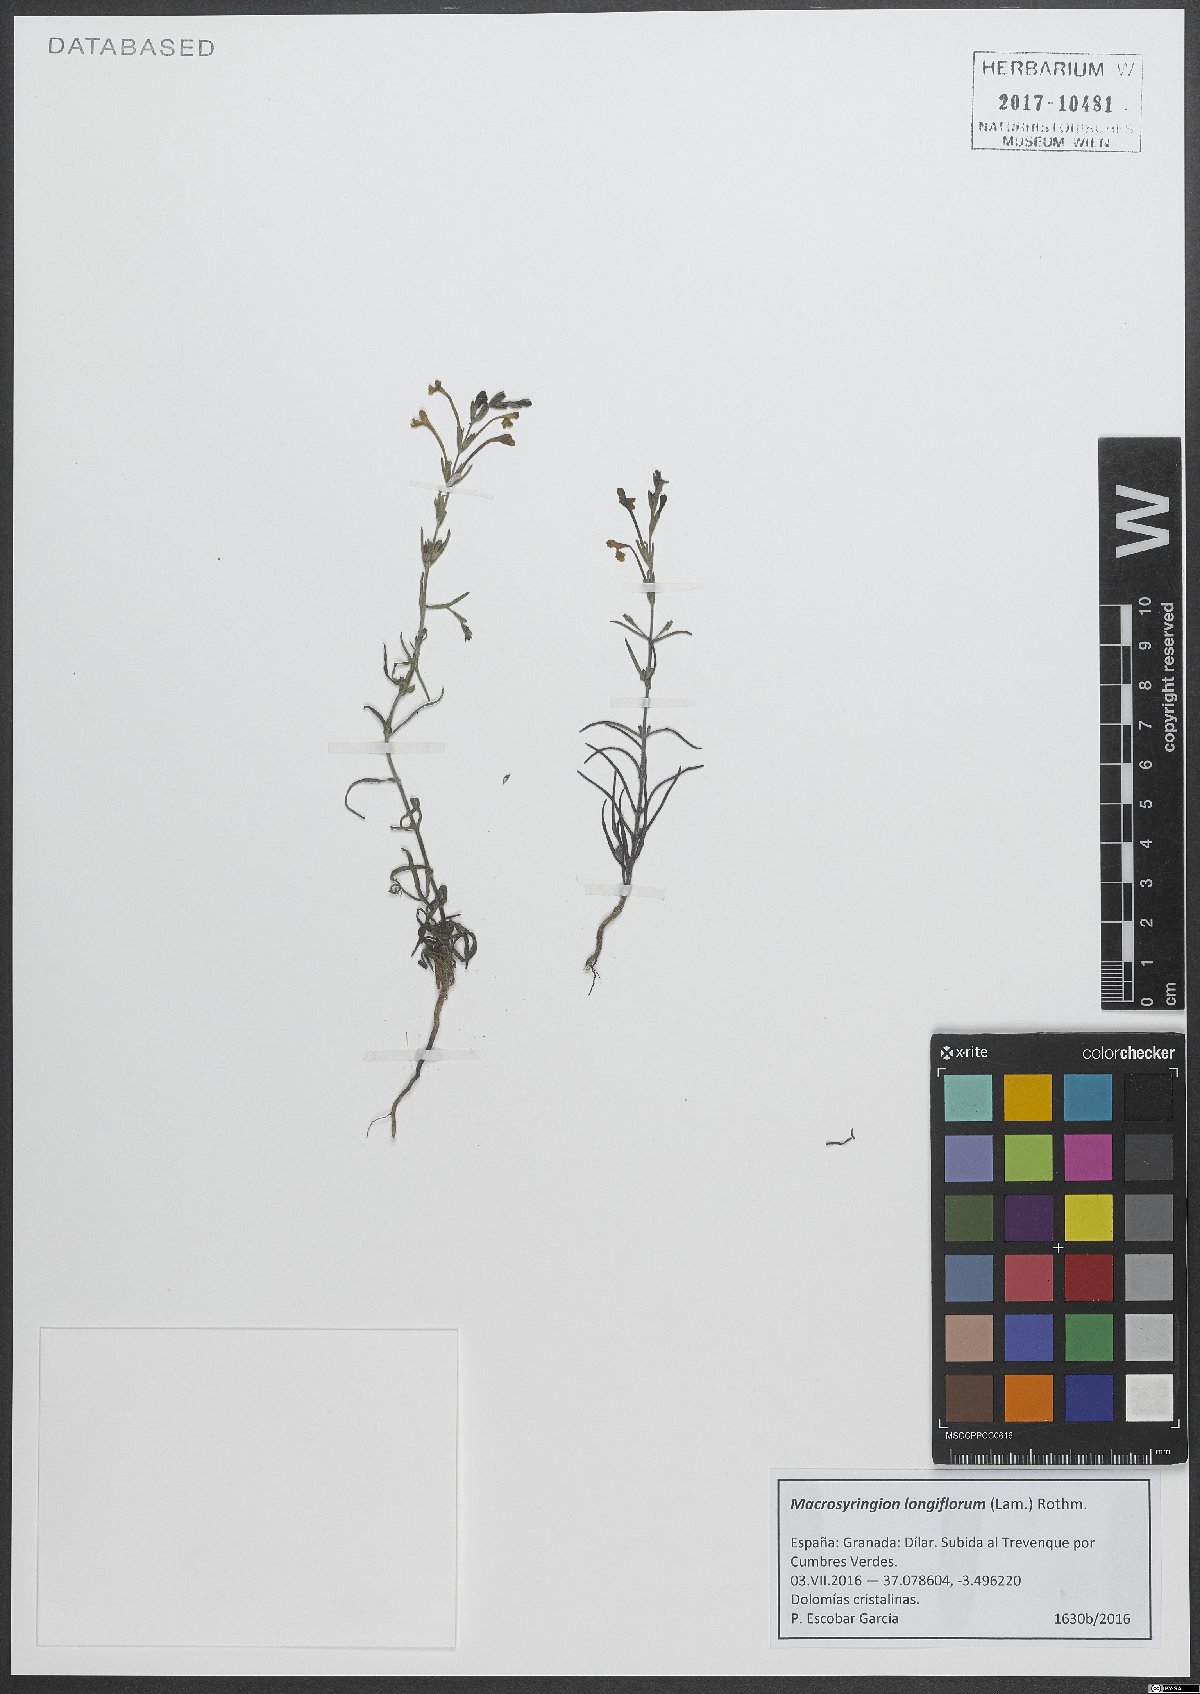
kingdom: Plantae
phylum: Tracheophyta
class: Magnoliopsida
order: Lamiales
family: Orobanchaceae
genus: Odontites
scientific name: Odontites longiflorus
